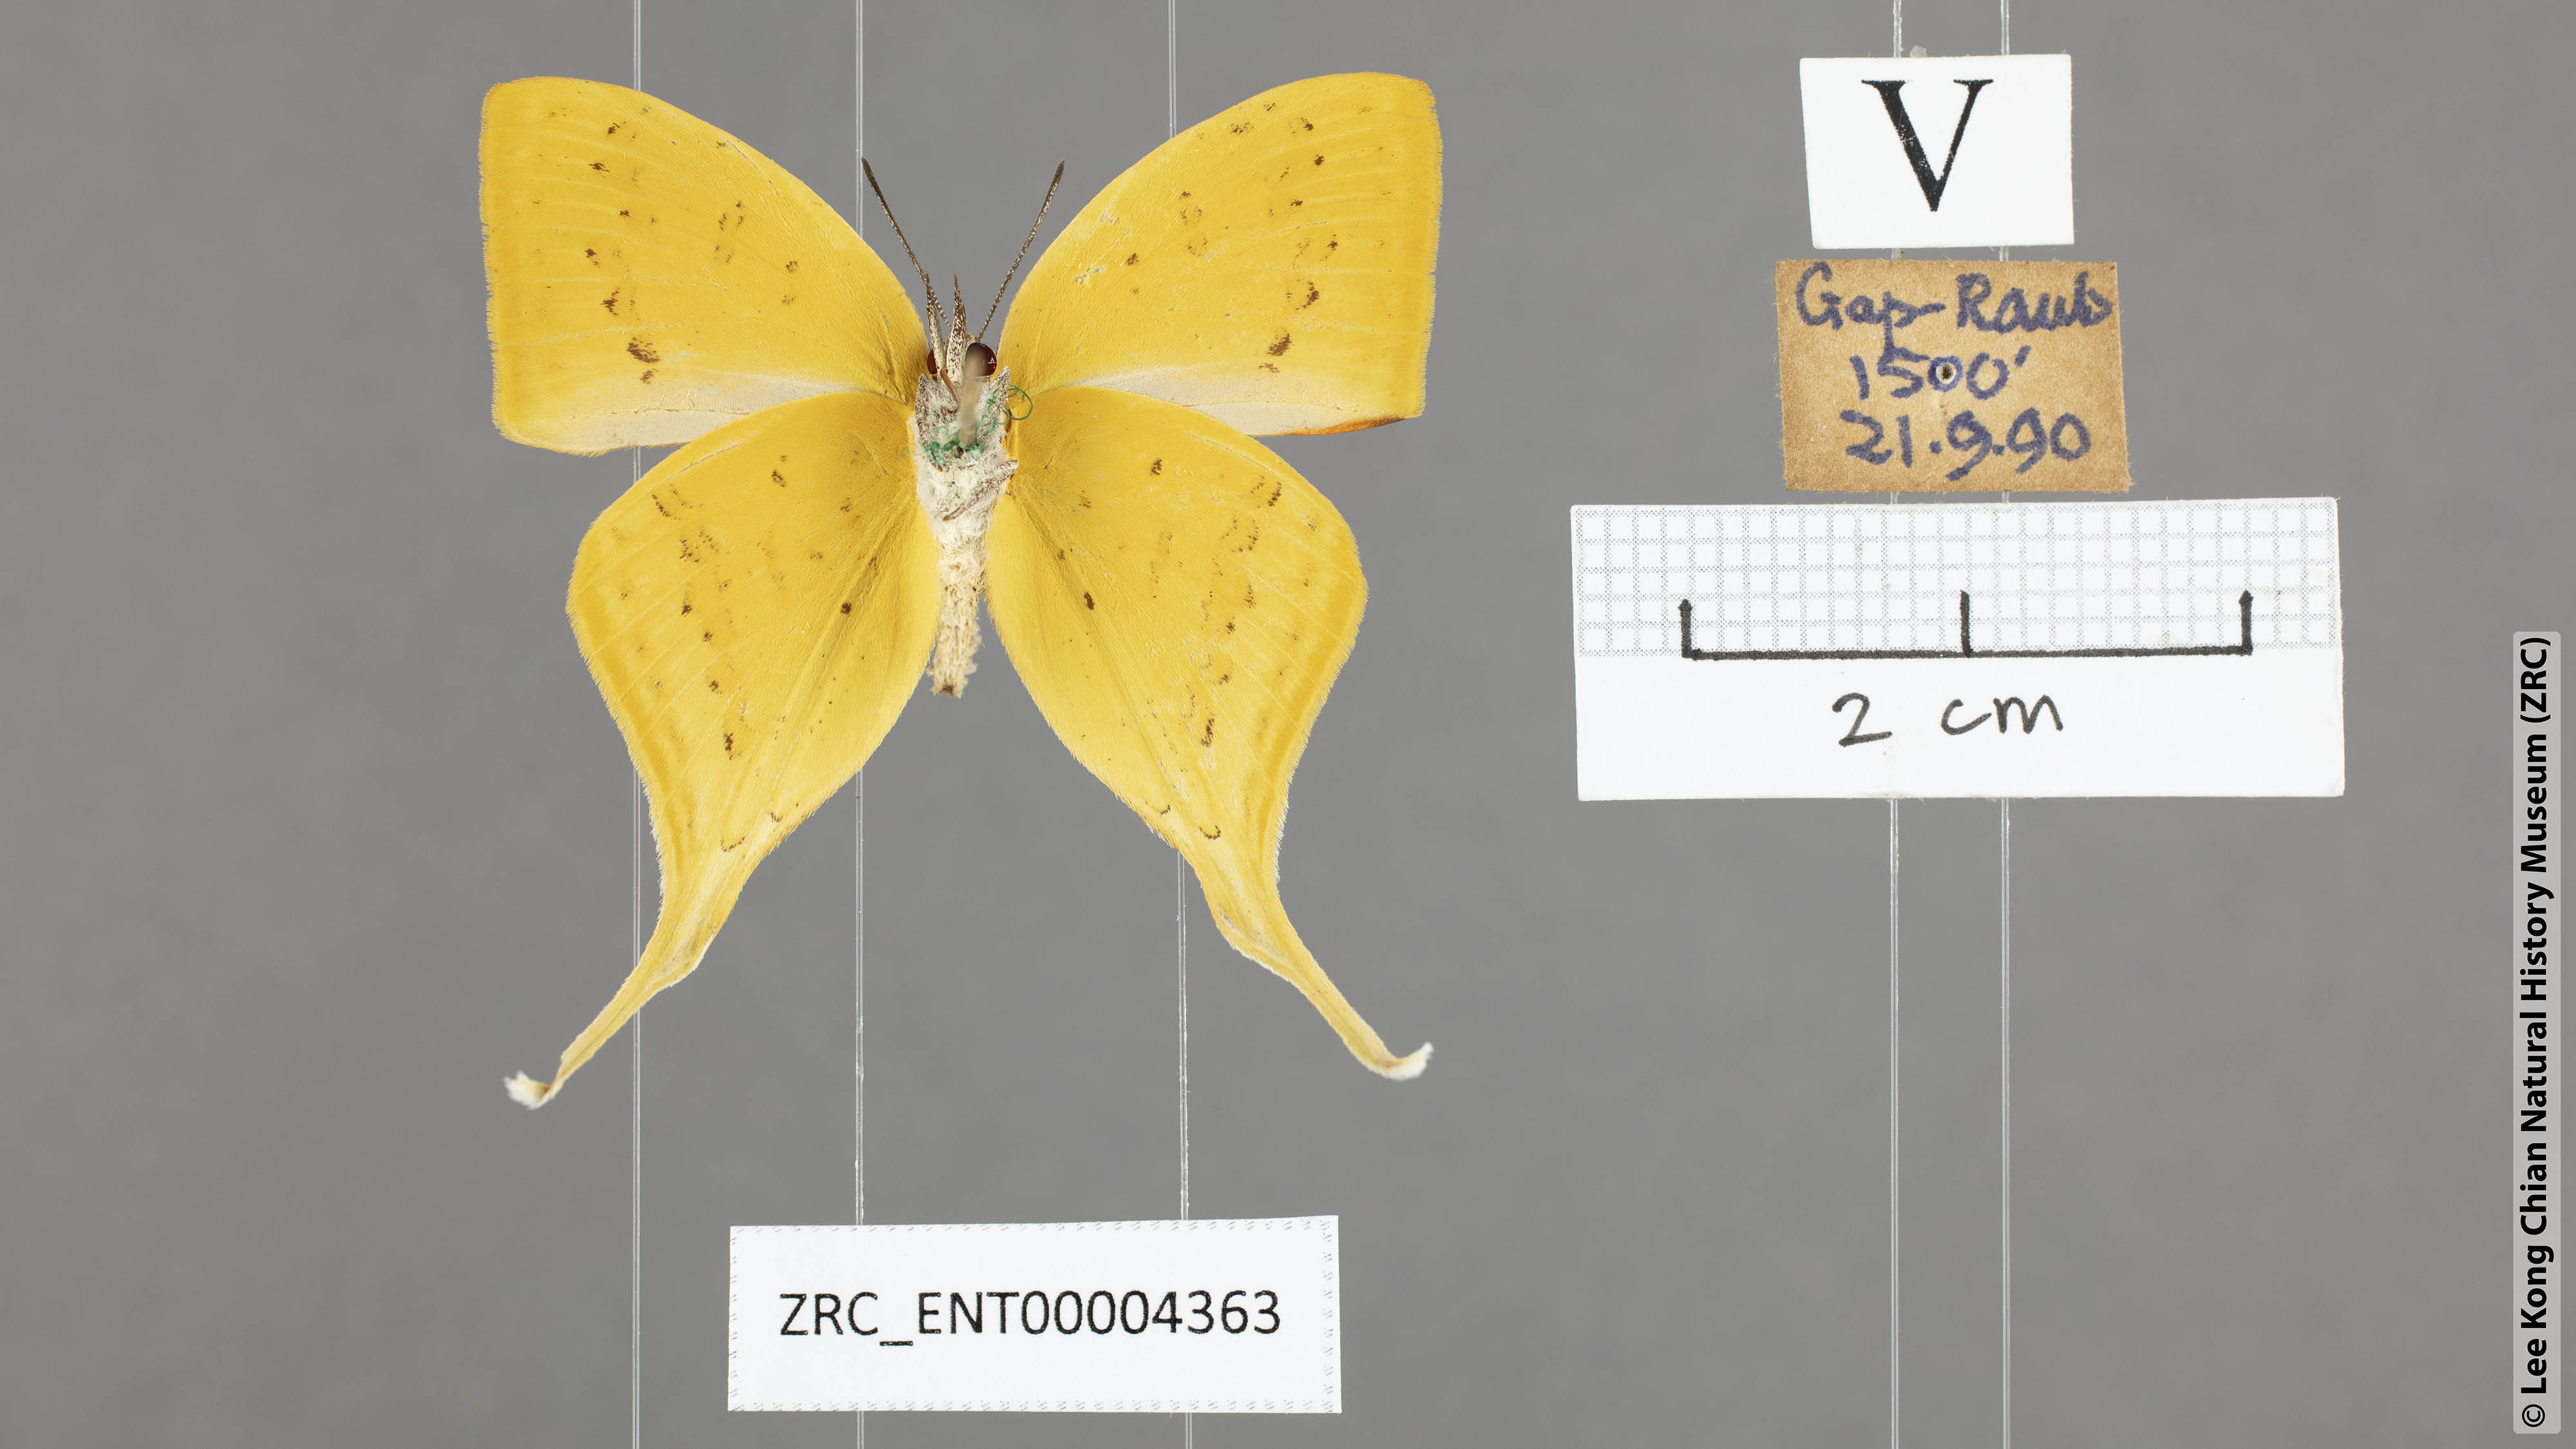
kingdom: Animalia
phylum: Arthropoda
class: Insecta
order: Lepidoptera
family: Lycaenidae
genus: Loxura
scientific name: Loxura cassiopeia
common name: Malayan yamfly
